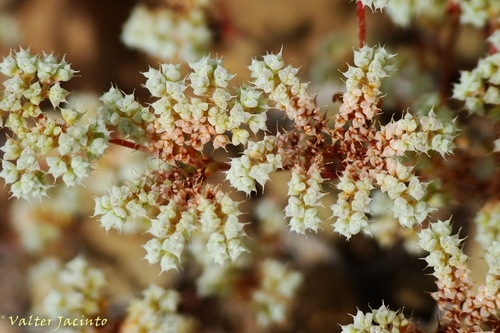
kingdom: Plantae
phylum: Tracheophyta
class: Magnoliopsida
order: Caryophyllales
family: Caryophyllaceae
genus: Chaetonychia
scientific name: Chaetonychia cymosa
